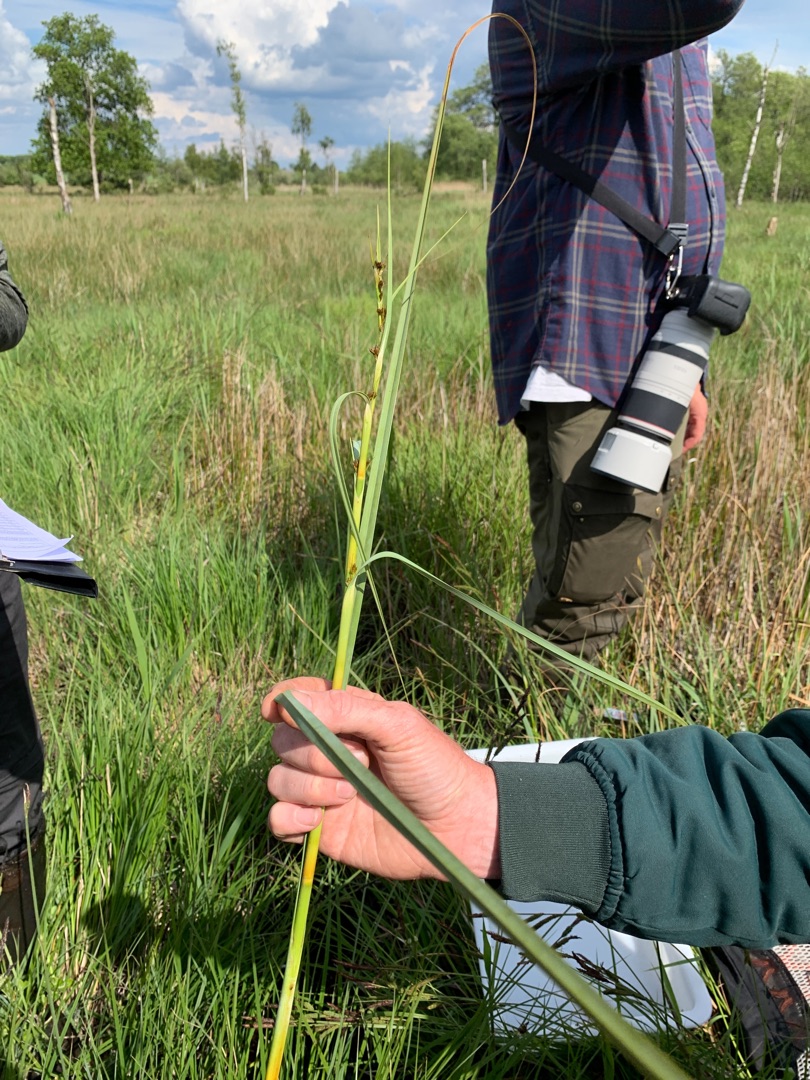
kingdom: Plantae
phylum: Tracheophyta
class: Liliopsida
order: Poales
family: Cyperaceae
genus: Cladium
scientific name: Cladium mariscus
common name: Hvas avneknippe
